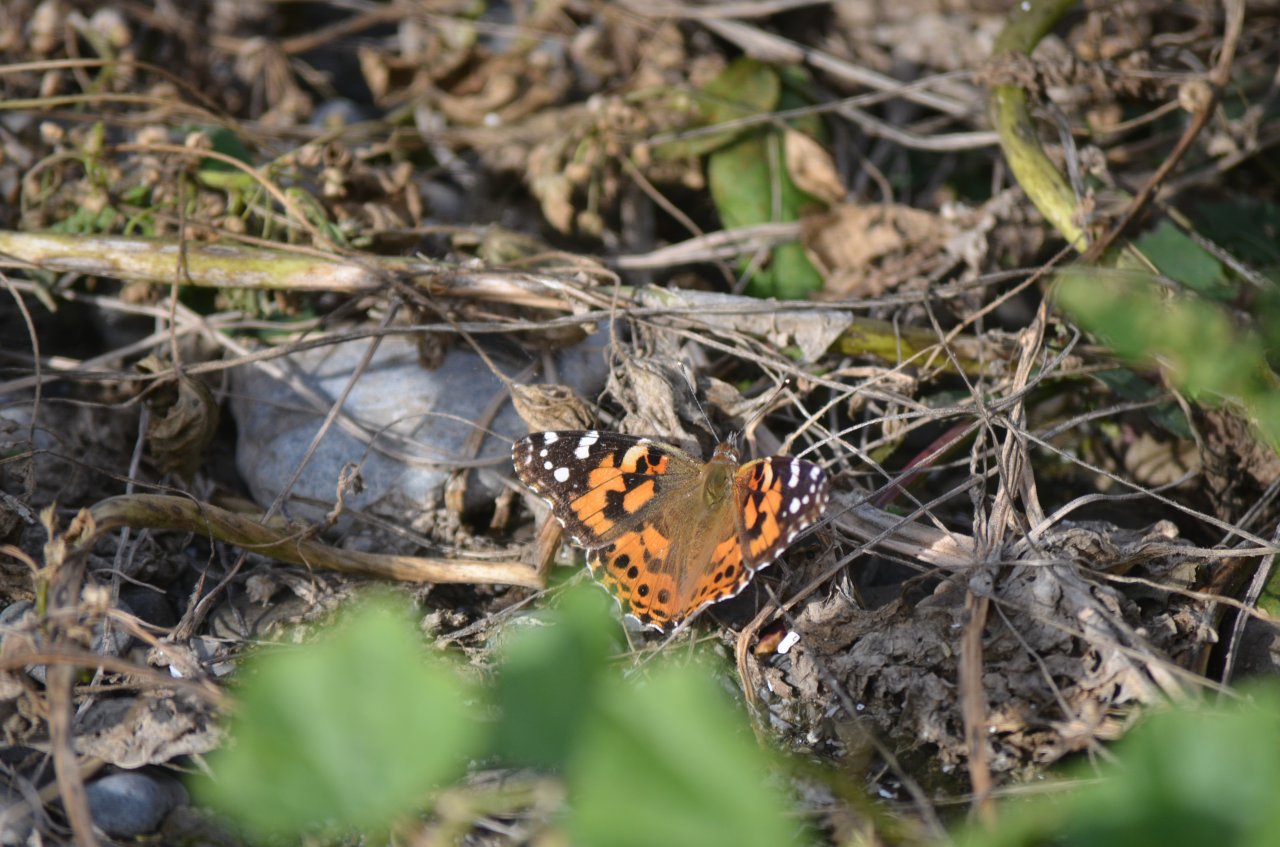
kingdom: Animalia
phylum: Arthropoda
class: Insecta
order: Lepidoptera
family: Nymphalidae
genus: Vanessa
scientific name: Vanessa virginiensis
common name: American Lady
